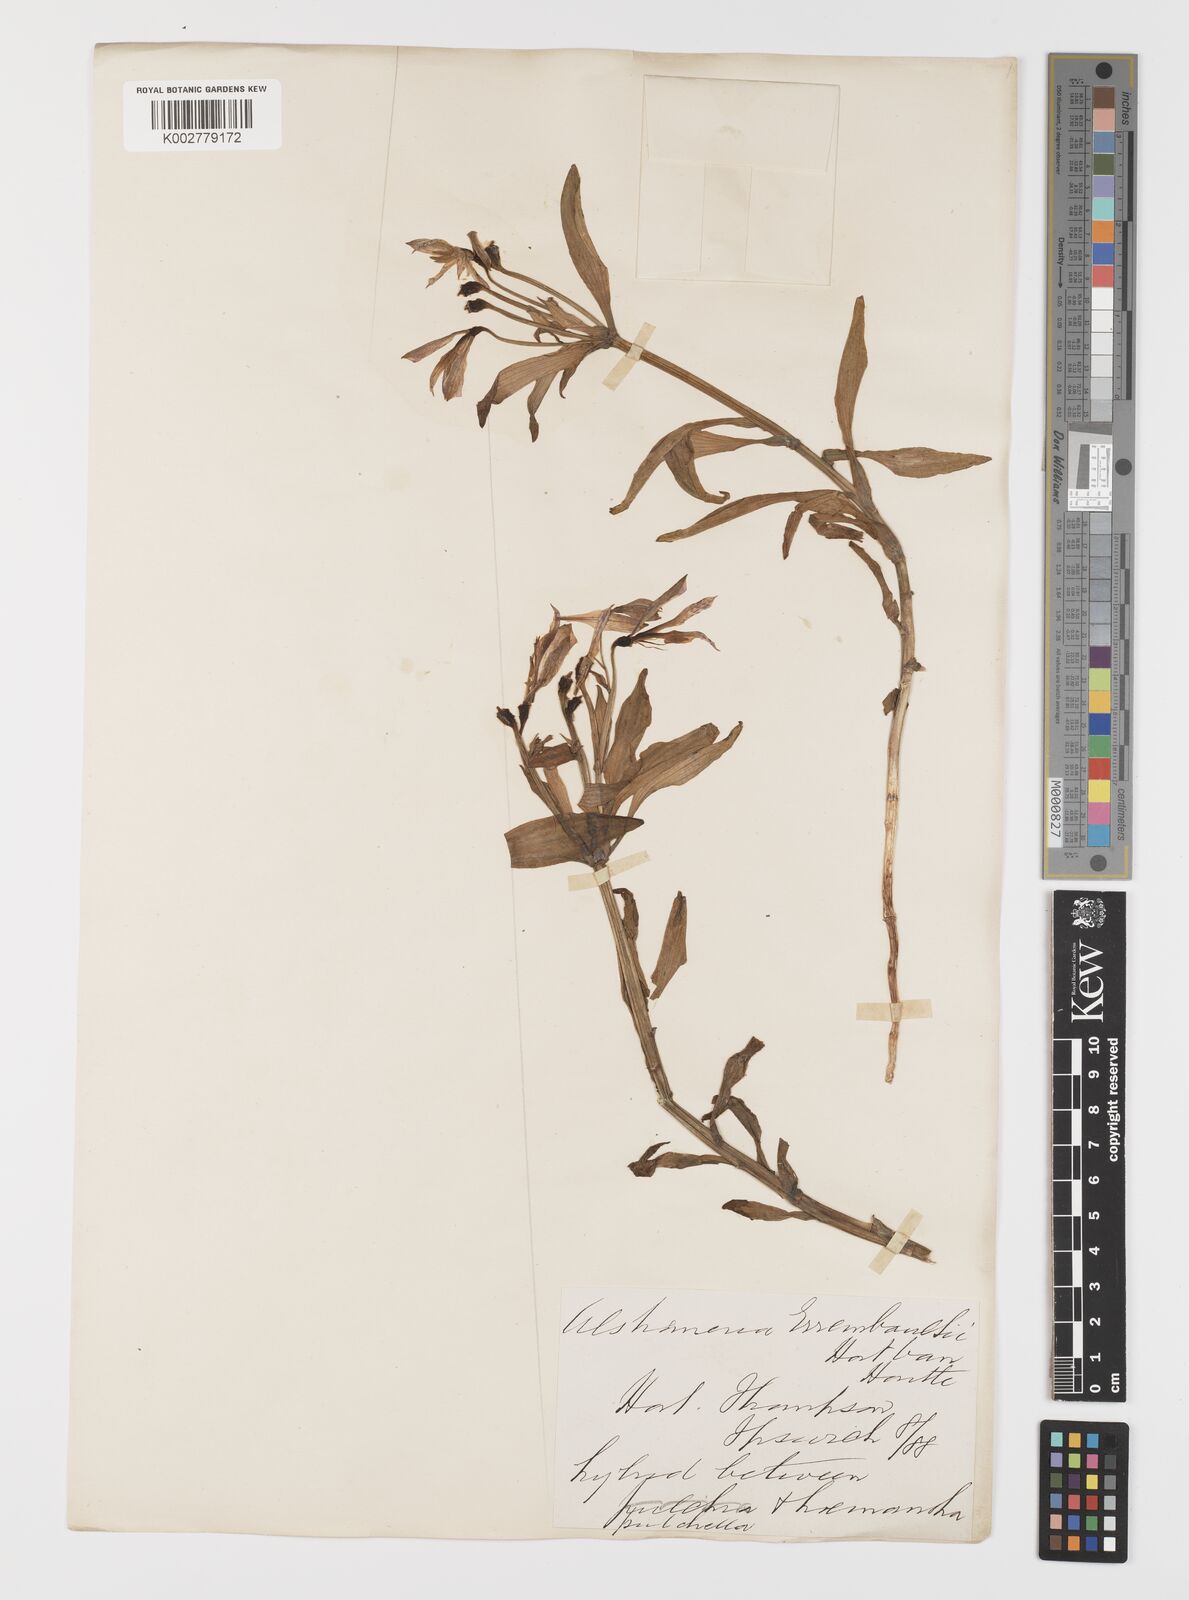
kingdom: Plantae
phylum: Tracheophyta
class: Liliopsida
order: Liliales
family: Alstroemeriaceae
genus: Alstroemeria
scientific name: Alstroemeria pelegrina
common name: Peruvian-lily
